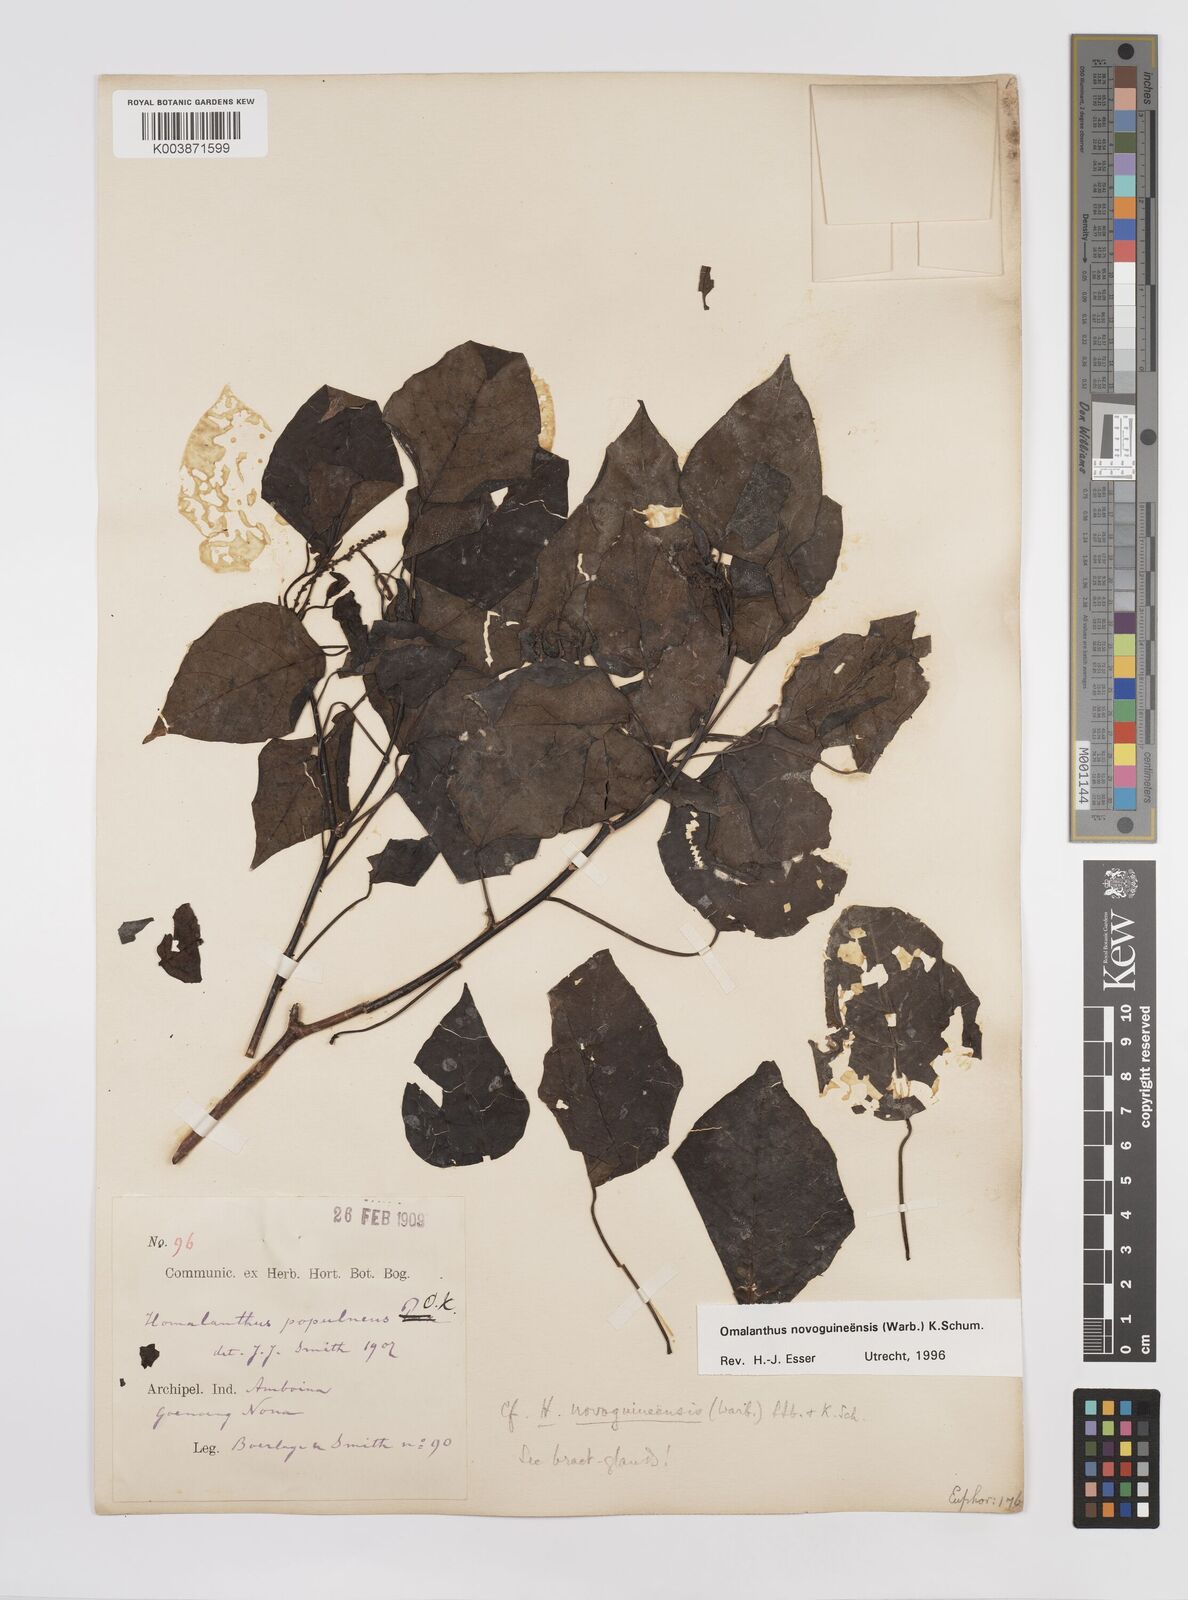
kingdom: Plantae
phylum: Tracheophyta
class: Magnoliopsida
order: Malpighiales
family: Euphorbiaceae
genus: Homalanthus
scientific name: Homalanthus novoguineensis
